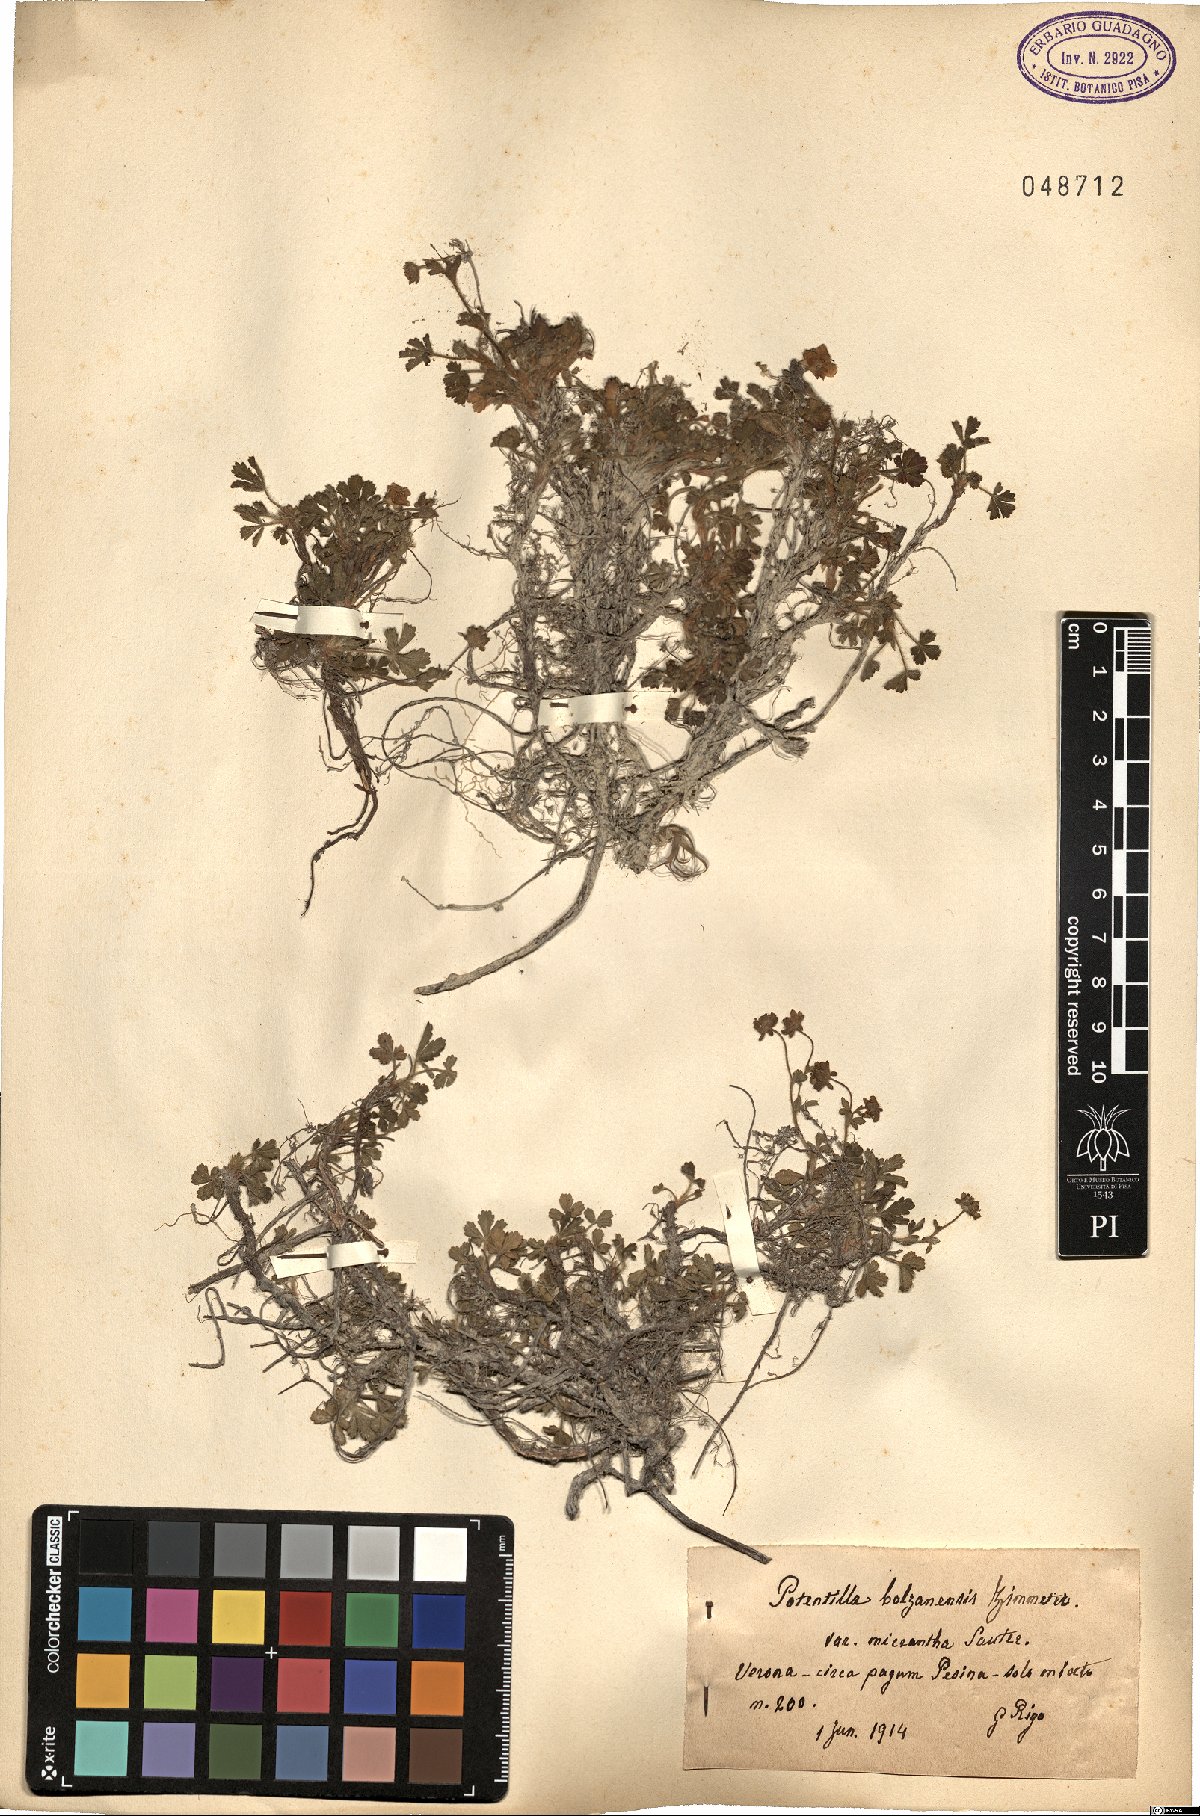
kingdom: Plantae
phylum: Tracheophyta
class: Magnoliopsida
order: Rosales
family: Rosaceae
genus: Potentilla
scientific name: Potentilla cinerea
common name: Ashy cinquefoil
